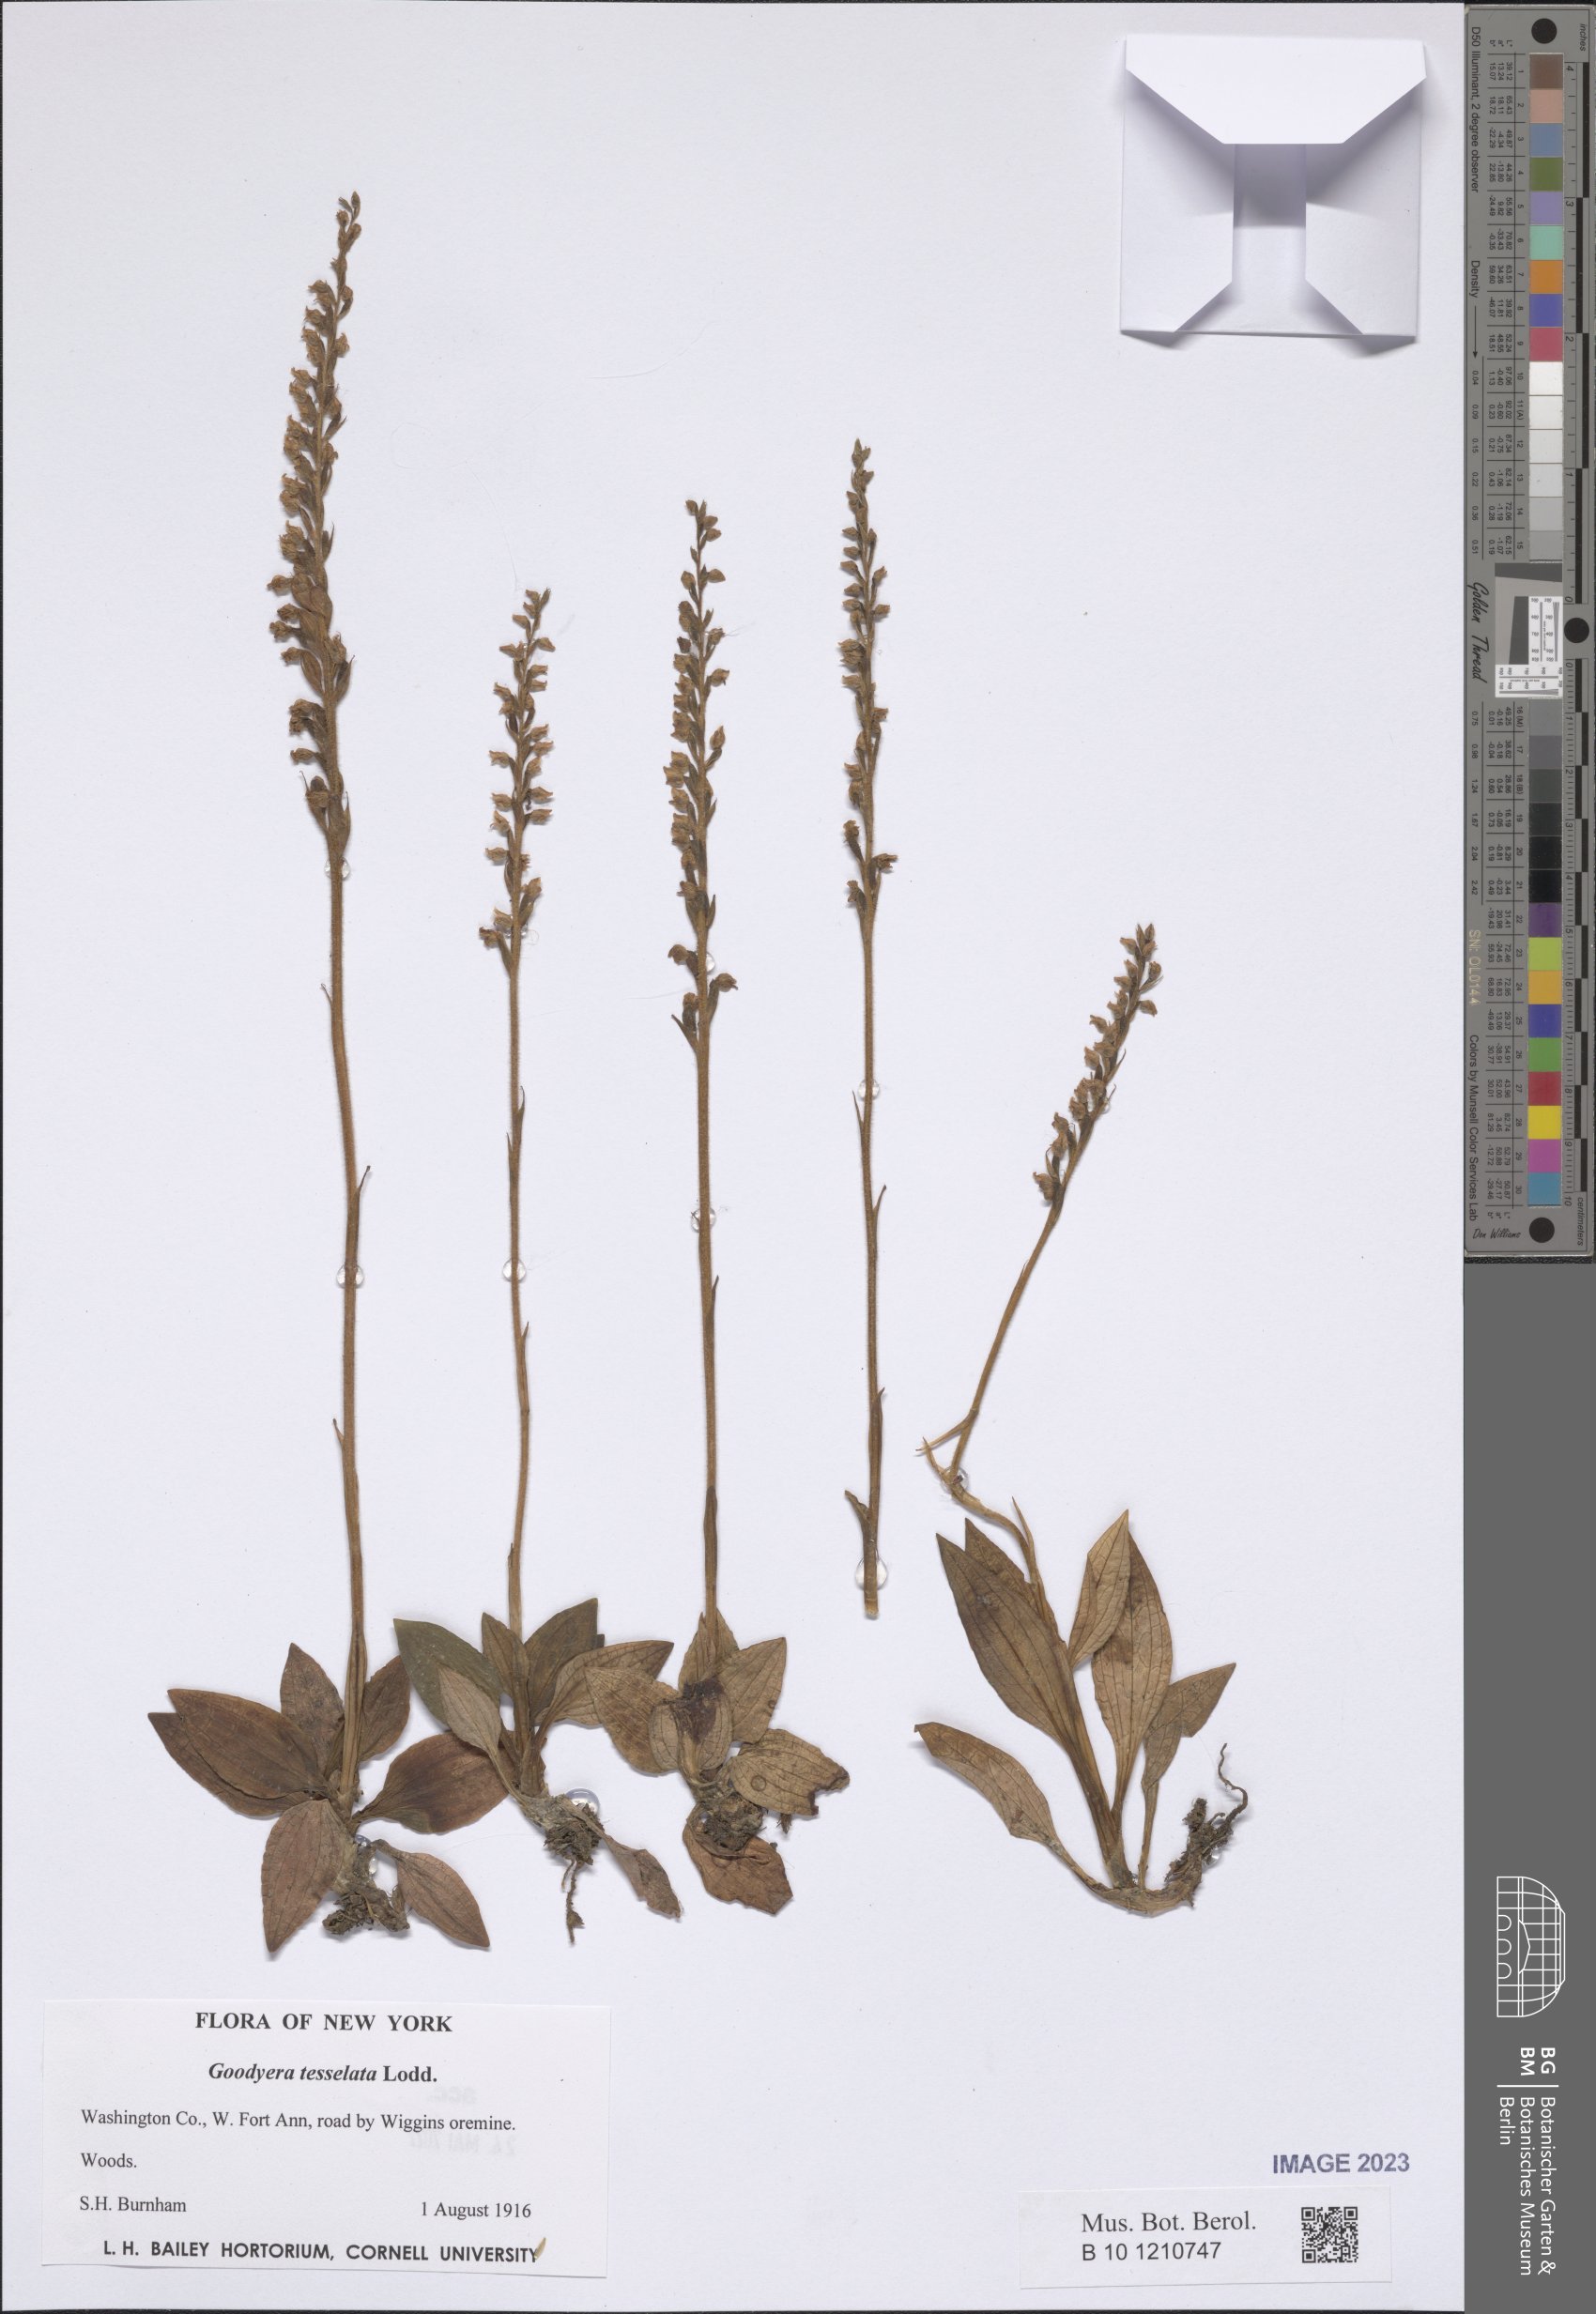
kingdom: Plantae
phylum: Tracheophyta
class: Liliopsida
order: Asparagales
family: Orchidaceae
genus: Goodyera
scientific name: Goodyera tesselata
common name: Checkered rattlesnake-plantain
